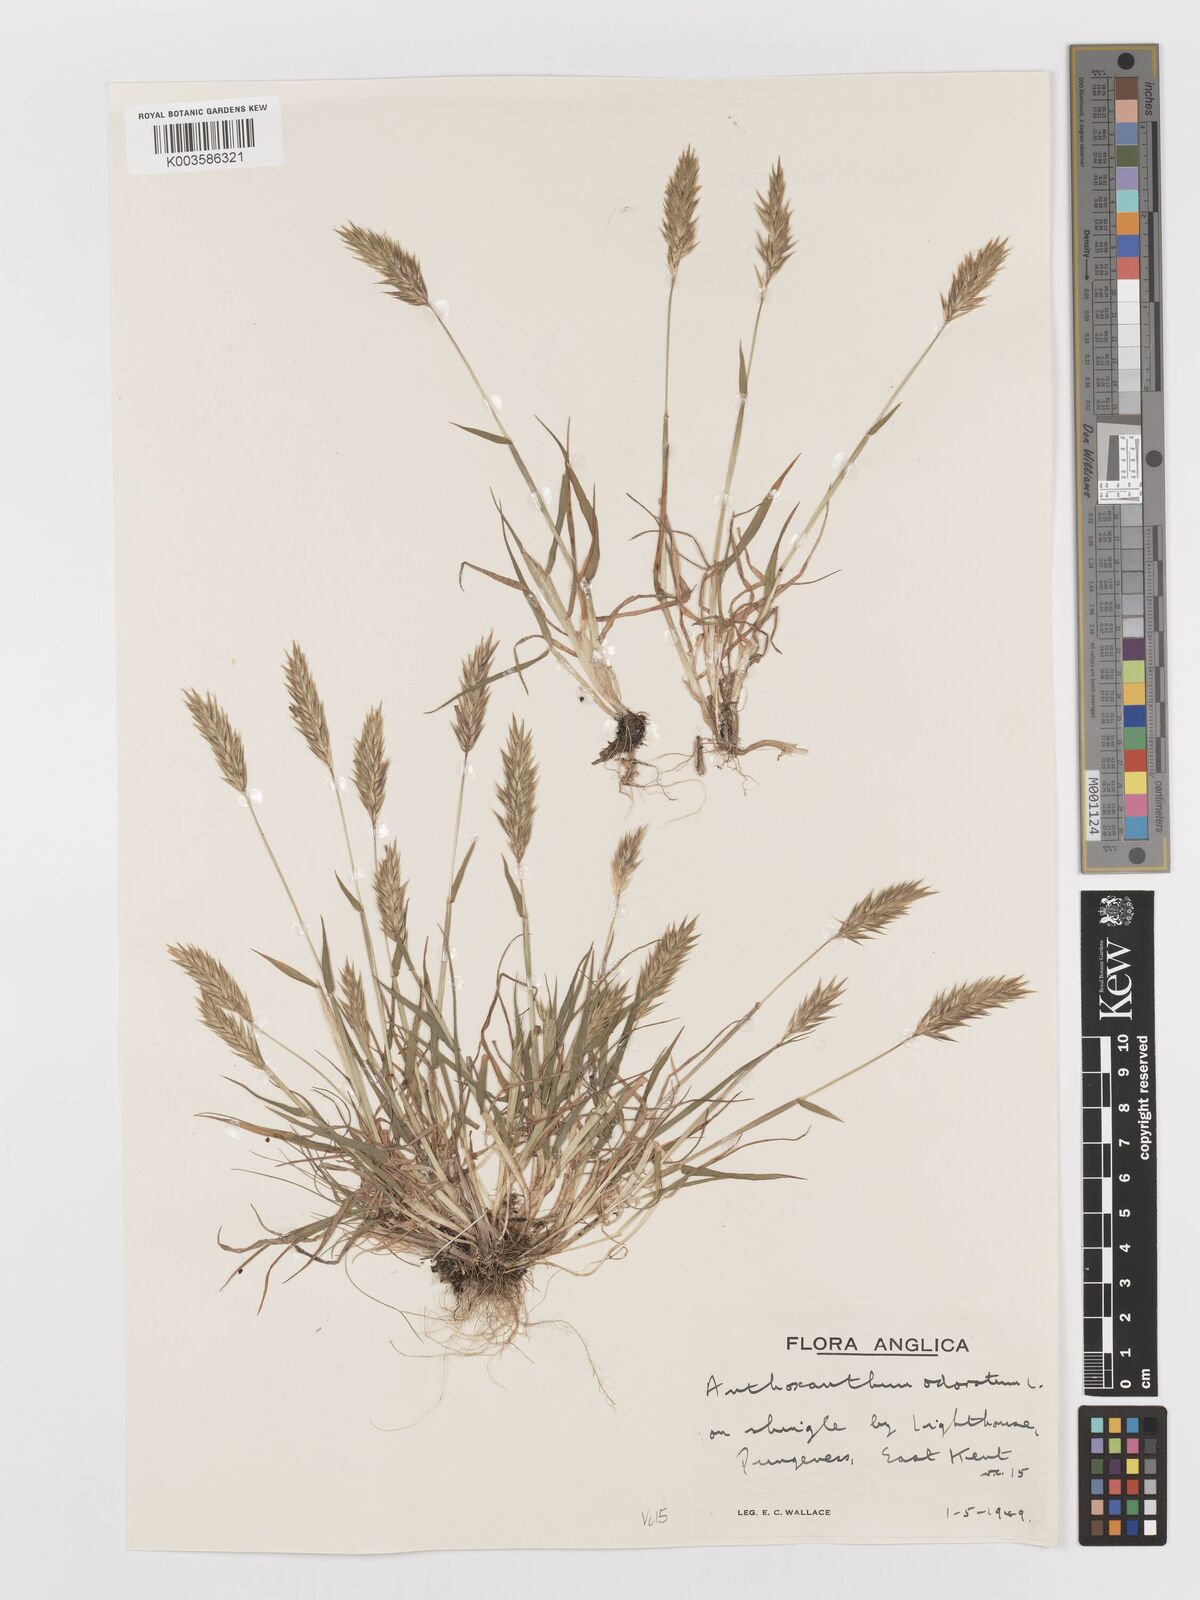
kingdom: Plantae
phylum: Tracheophyta
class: Liliopsida
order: Poales
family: Poaceae
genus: Anthoxanthum
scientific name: Anthoxanthum odoratum
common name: Sweet vernalgrass
